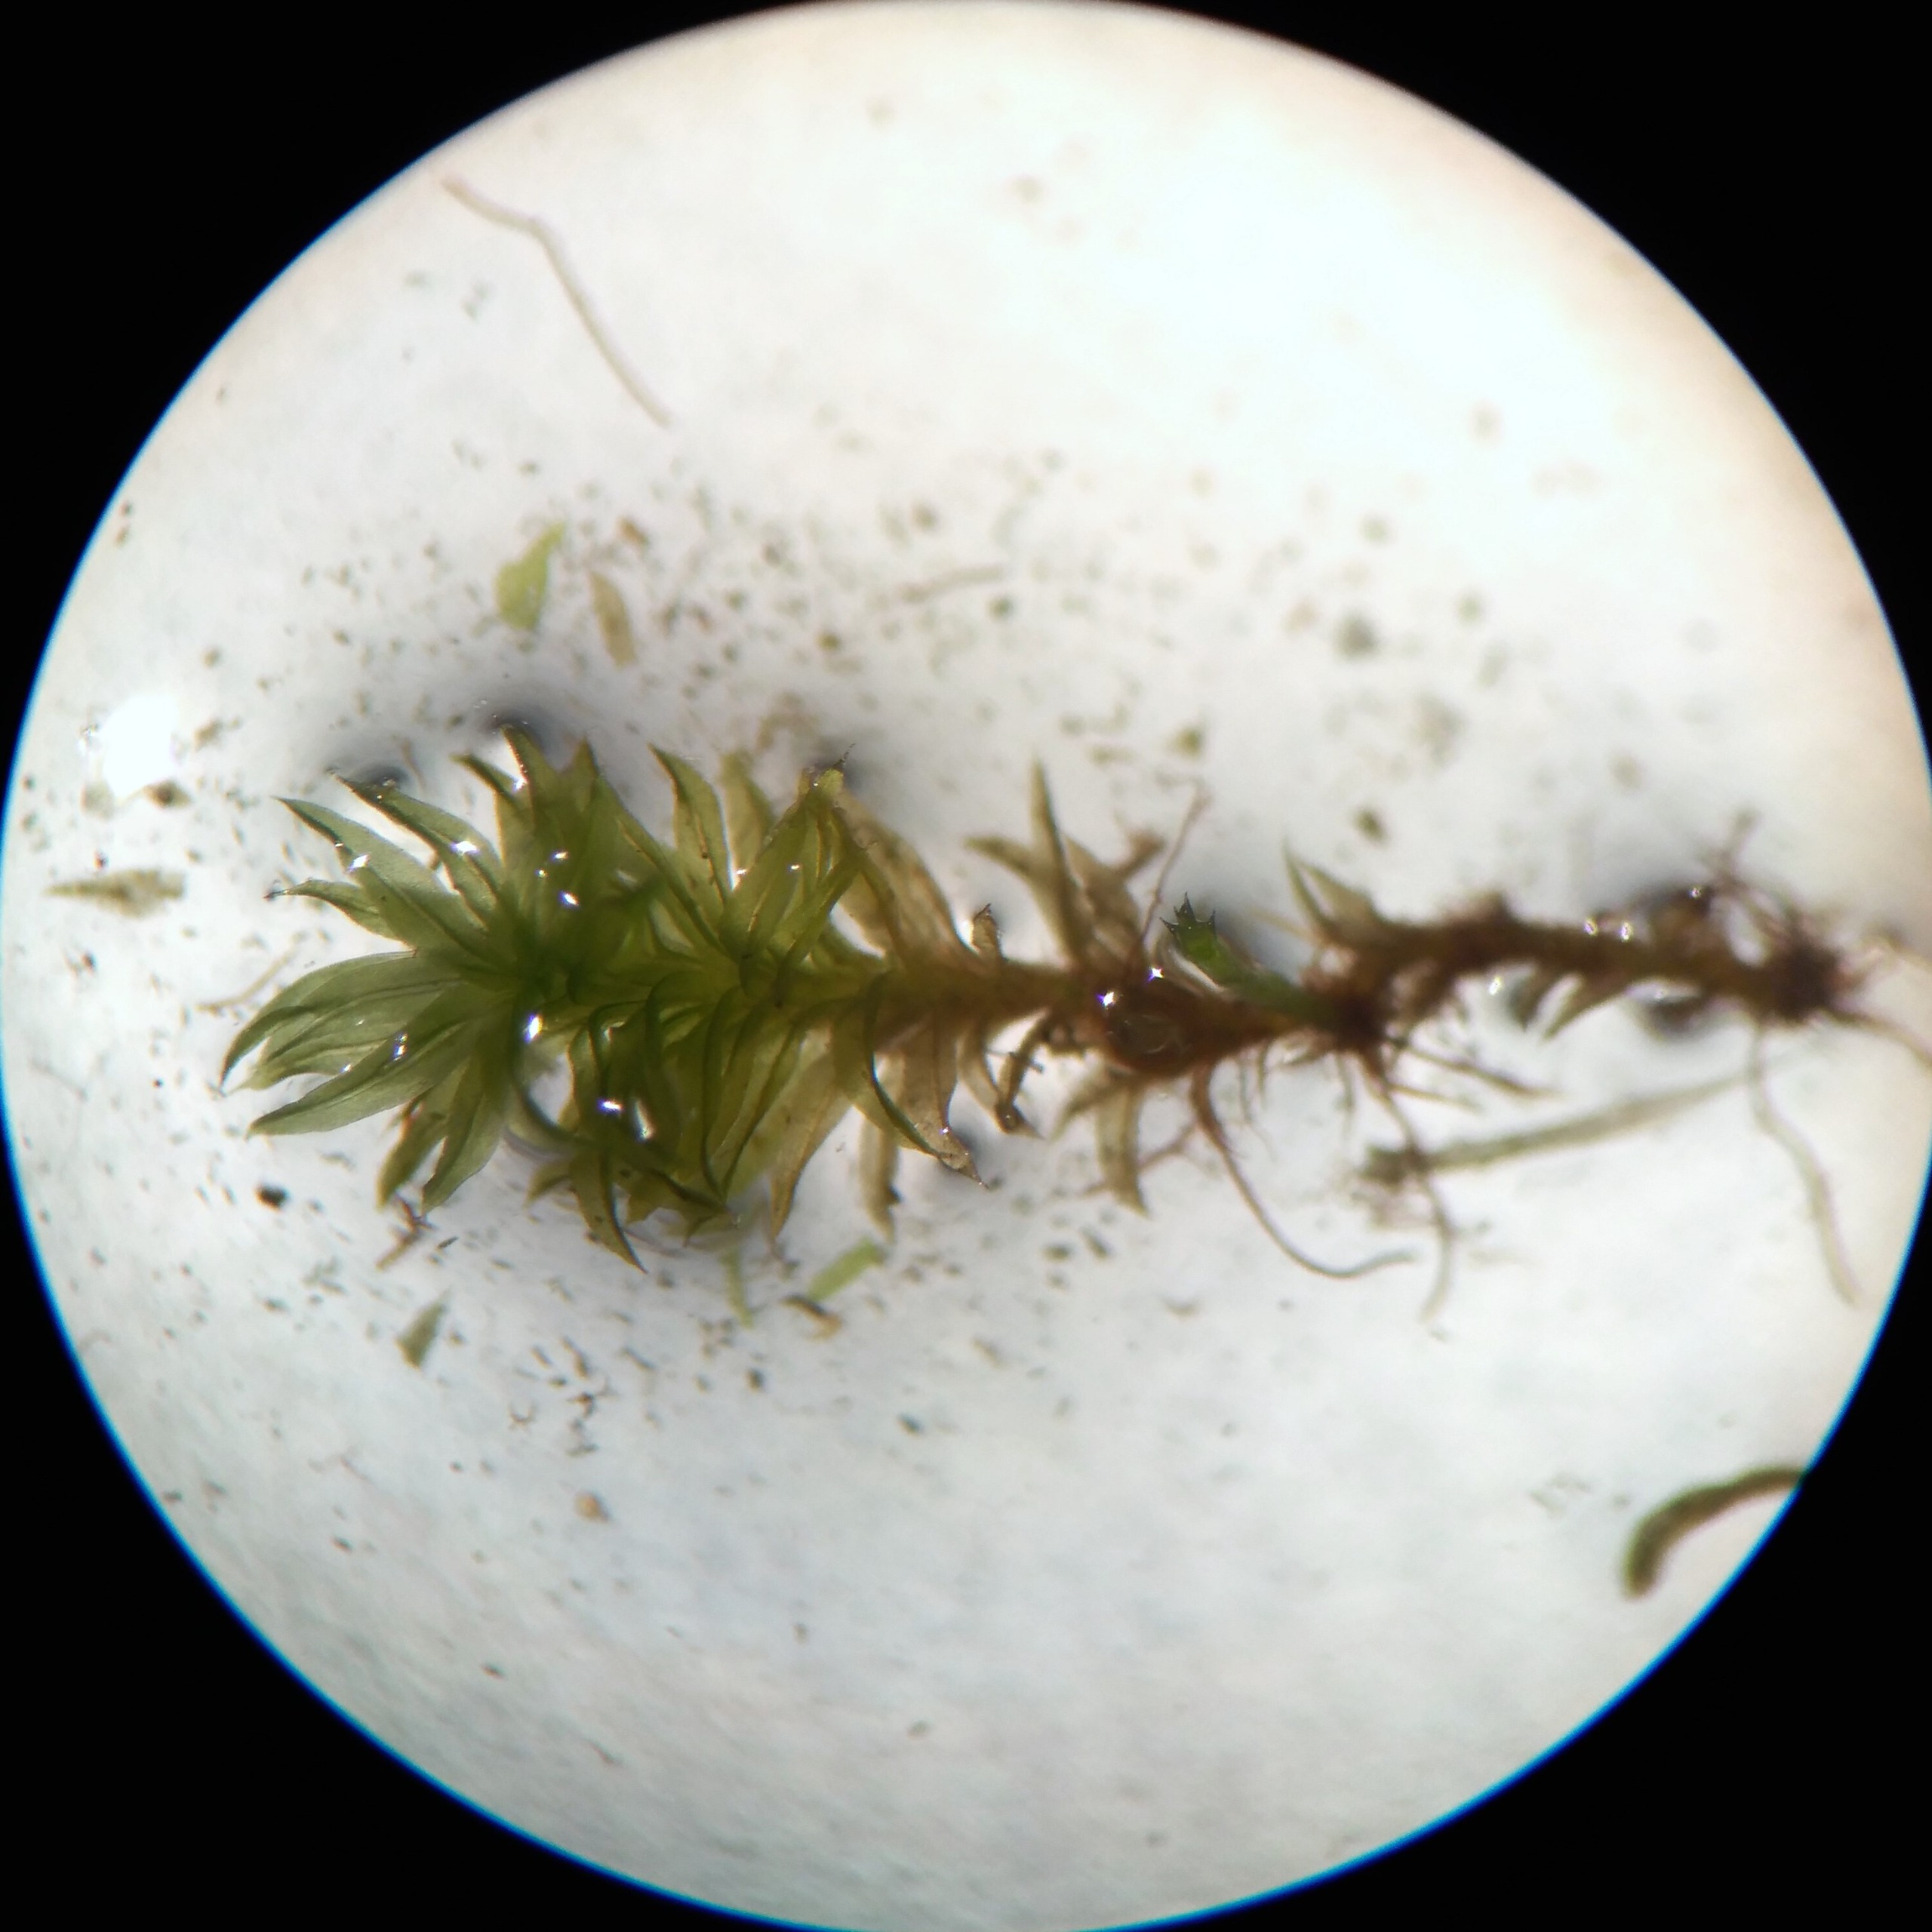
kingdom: Plantae
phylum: Bryophyta
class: Bryopsida
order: Orthotrichales
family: Orthotrichaceae
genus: Zygodon
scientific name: Zygodon rupestris
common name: Almindelig køllemos
